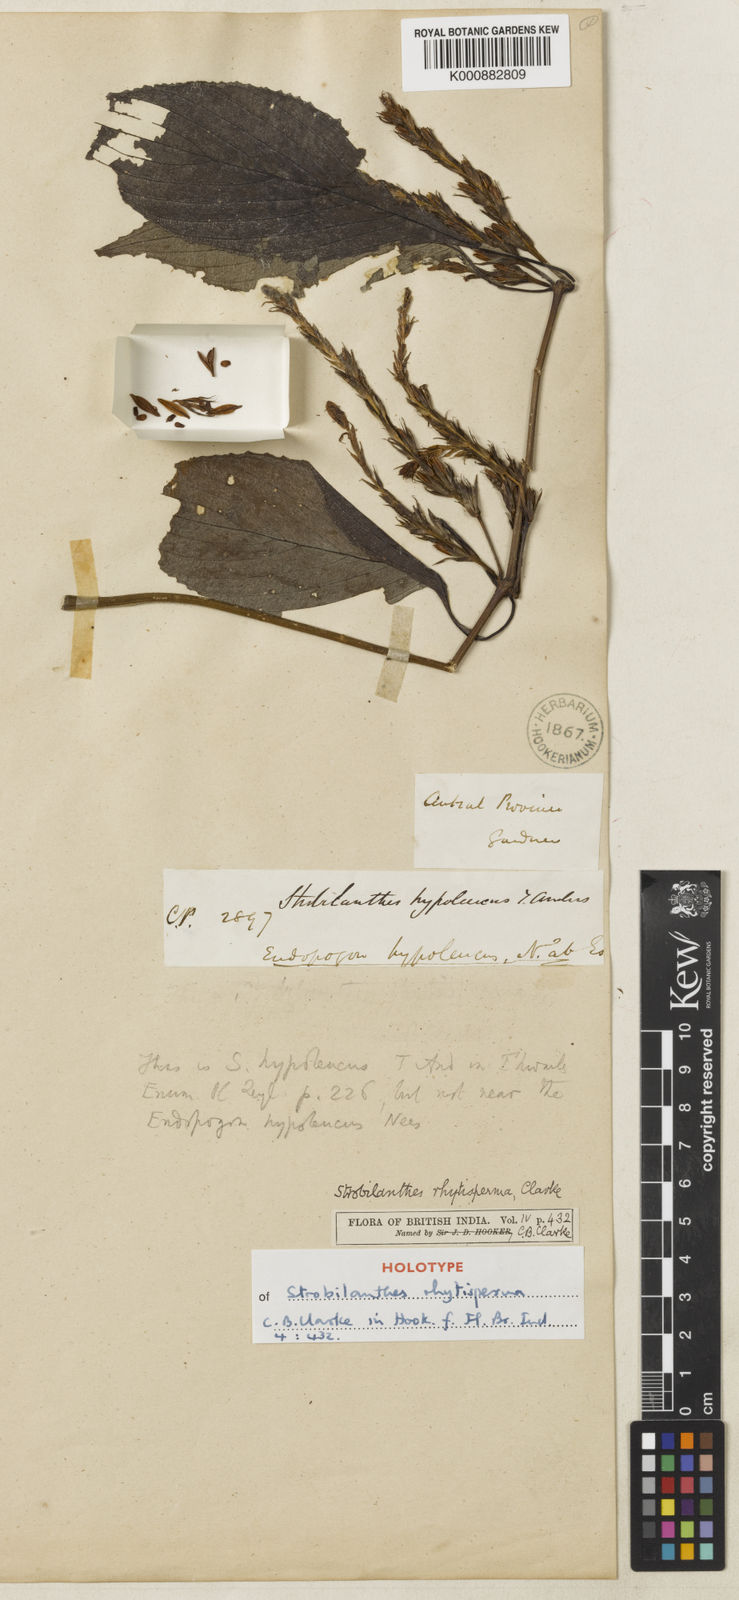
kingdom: Plantae
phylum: Tracheophyta
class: Magnoliopsida
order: Lamiales
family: Acanthaceae
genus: Strobilanthes
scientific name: Strobilanthes rhytisperma
